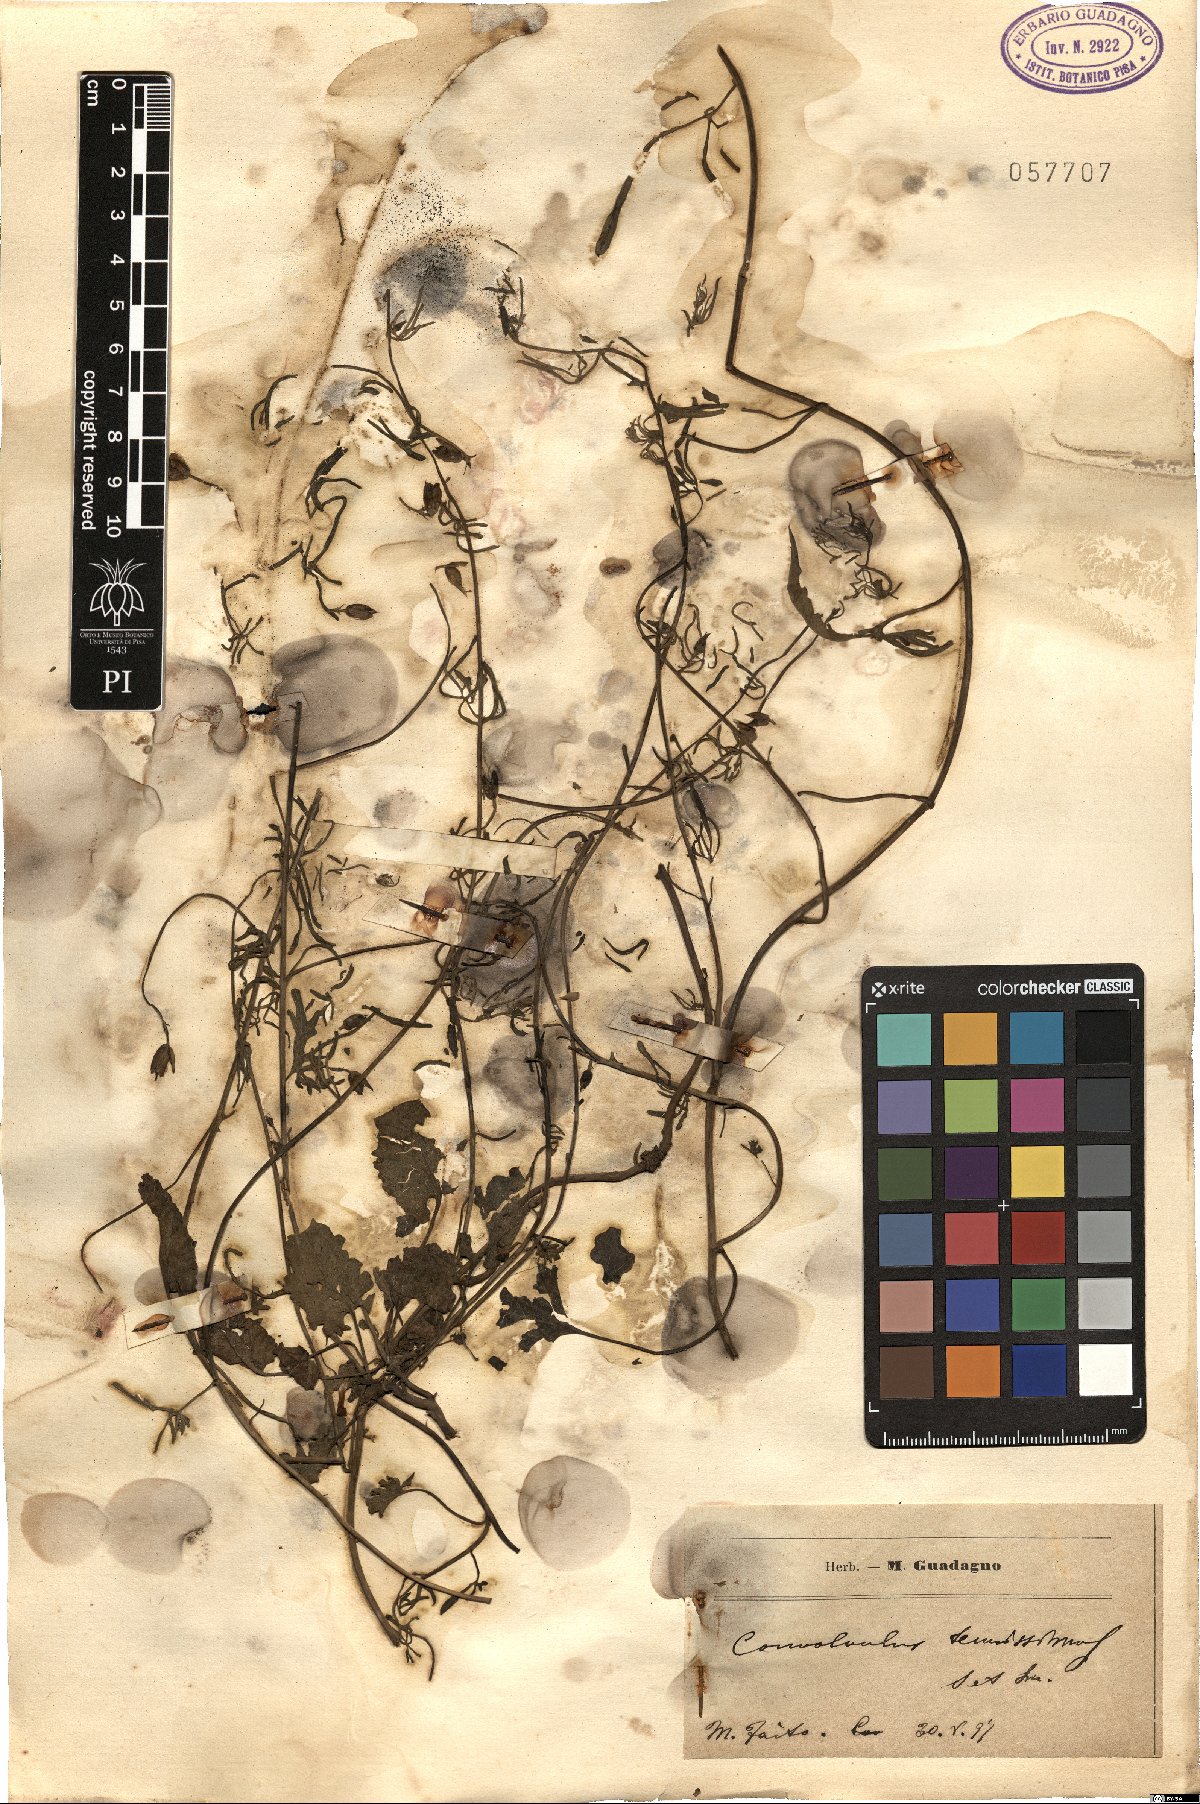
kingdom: Plantae
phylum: Tracheophyta
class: Magnoliopsida
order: Solanales
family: Convolvulaceae
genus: Convolvulus
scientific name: Convolvulus elegantissimus
